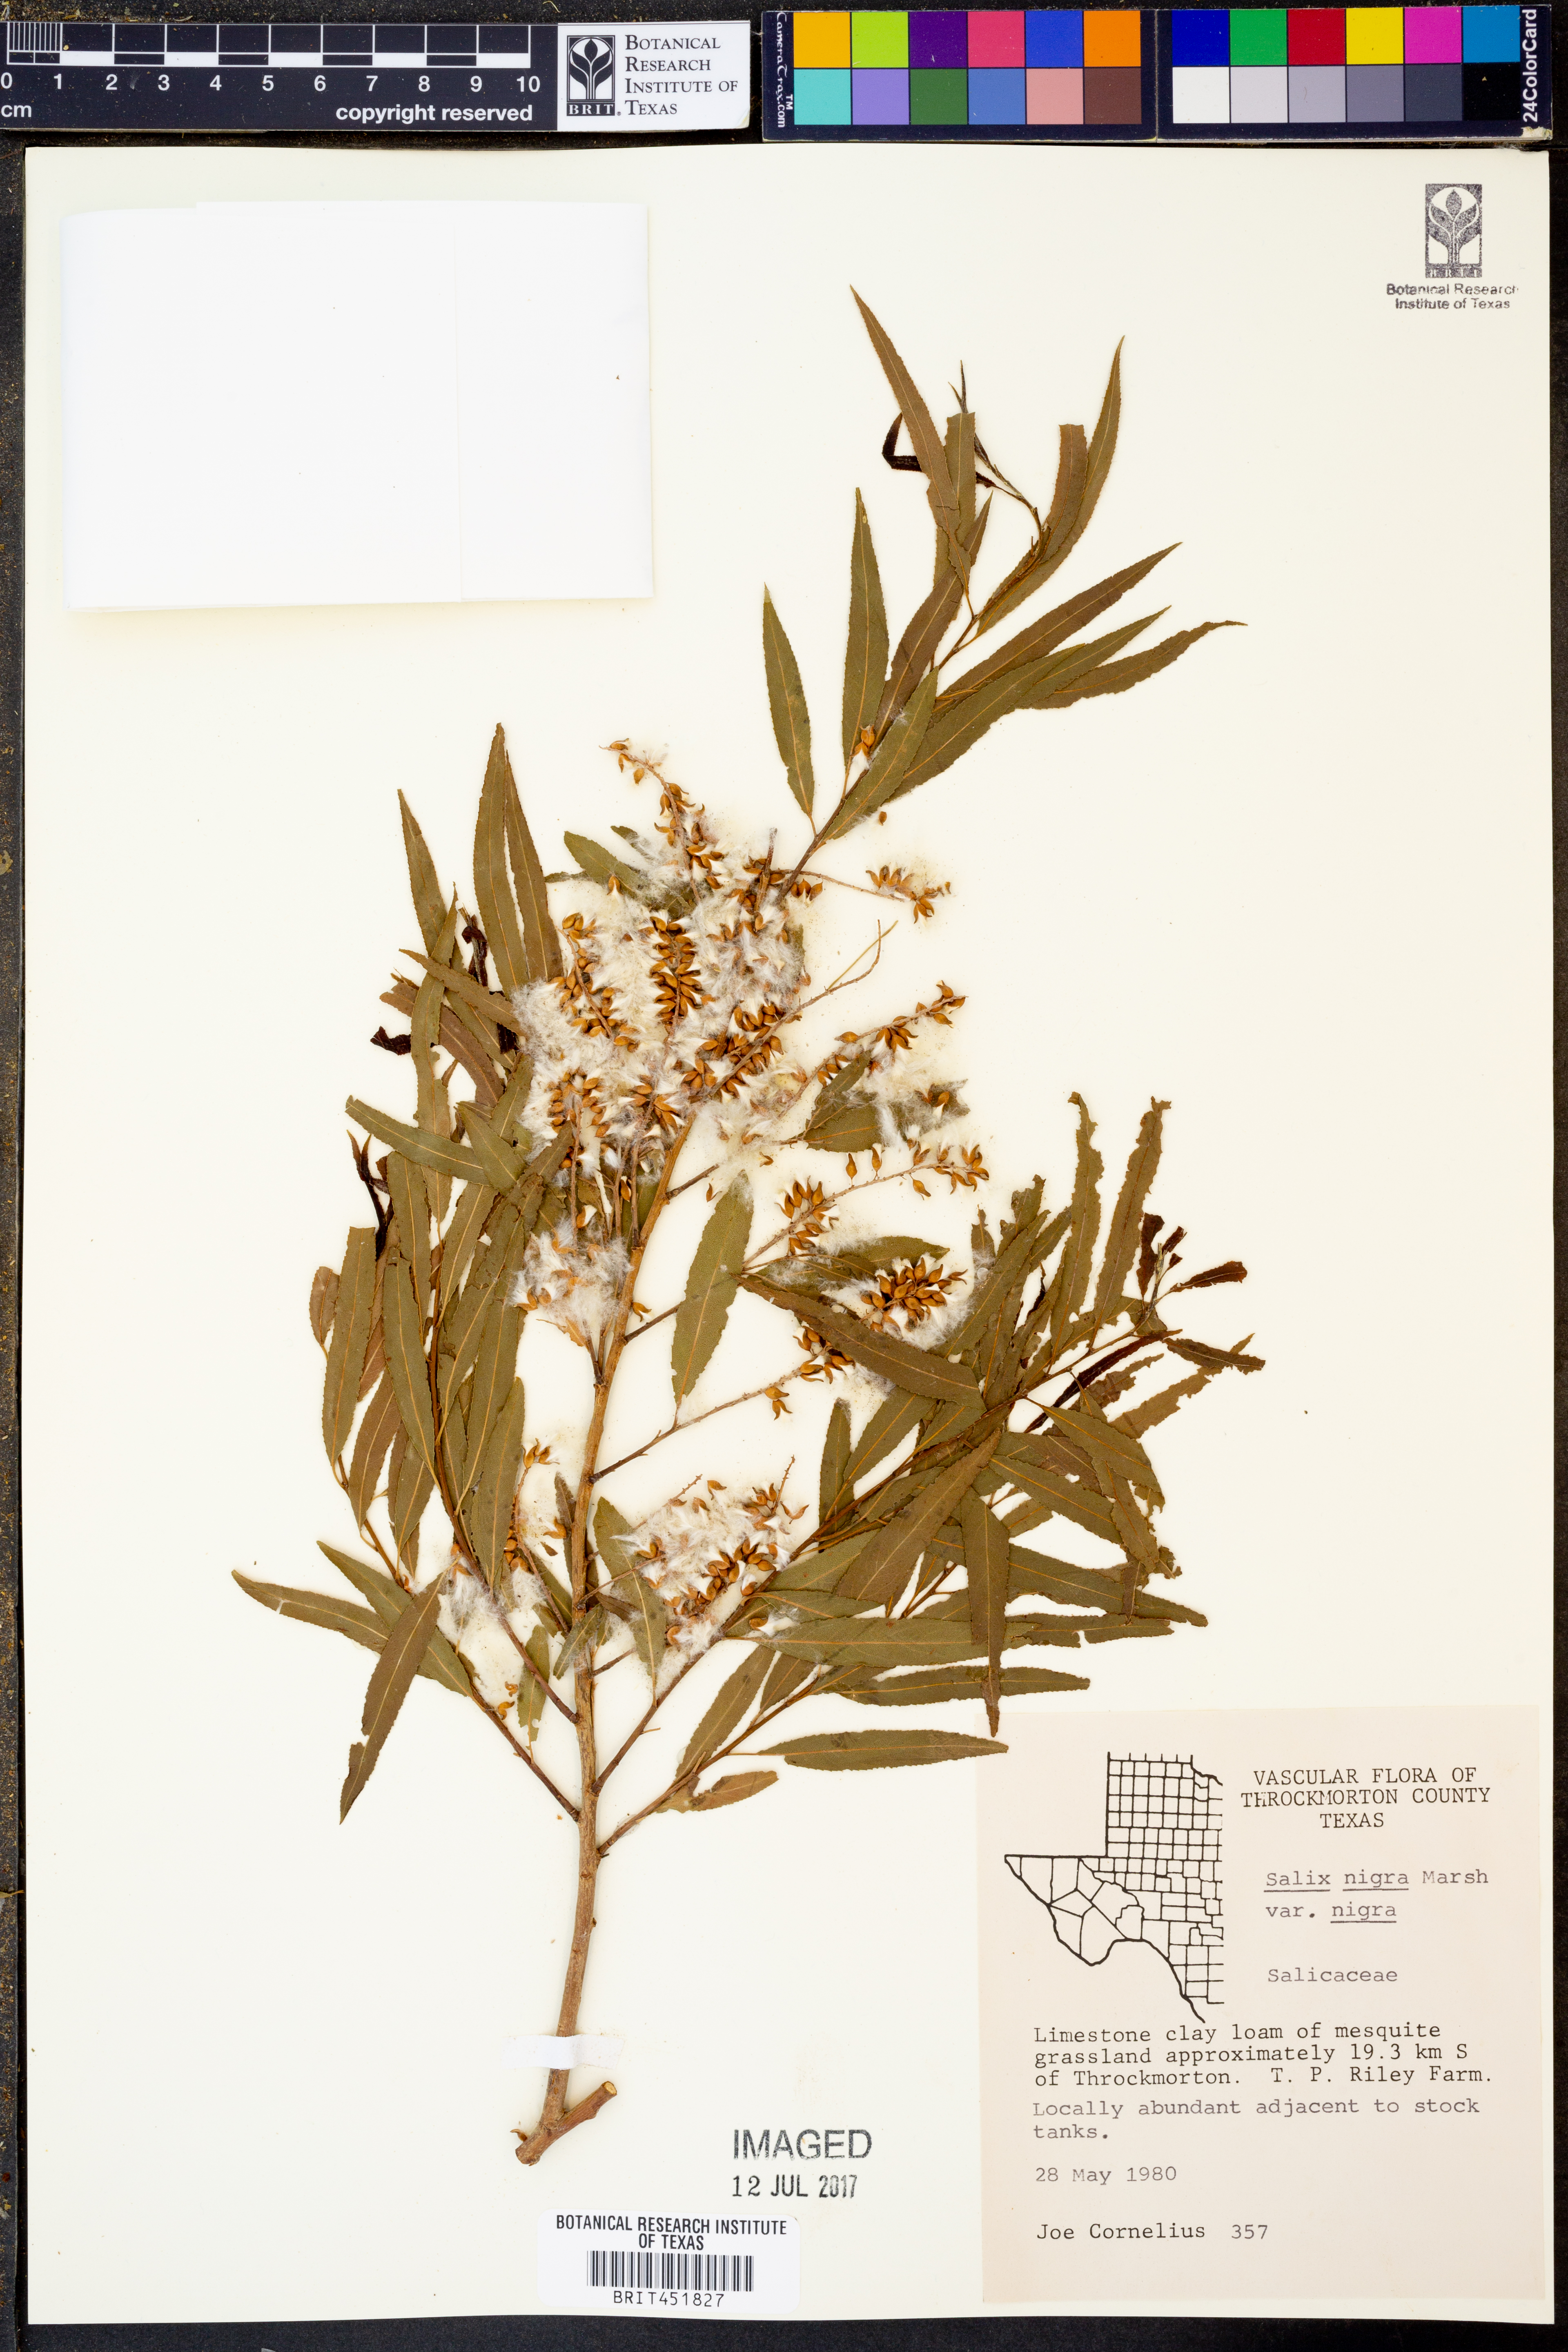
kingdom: Plantae
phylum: Tracheophyta
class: Magnoliopsida
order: Malpighiales
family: Salicaceae
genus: Salix
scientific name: Salix nigra
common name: Black willow
